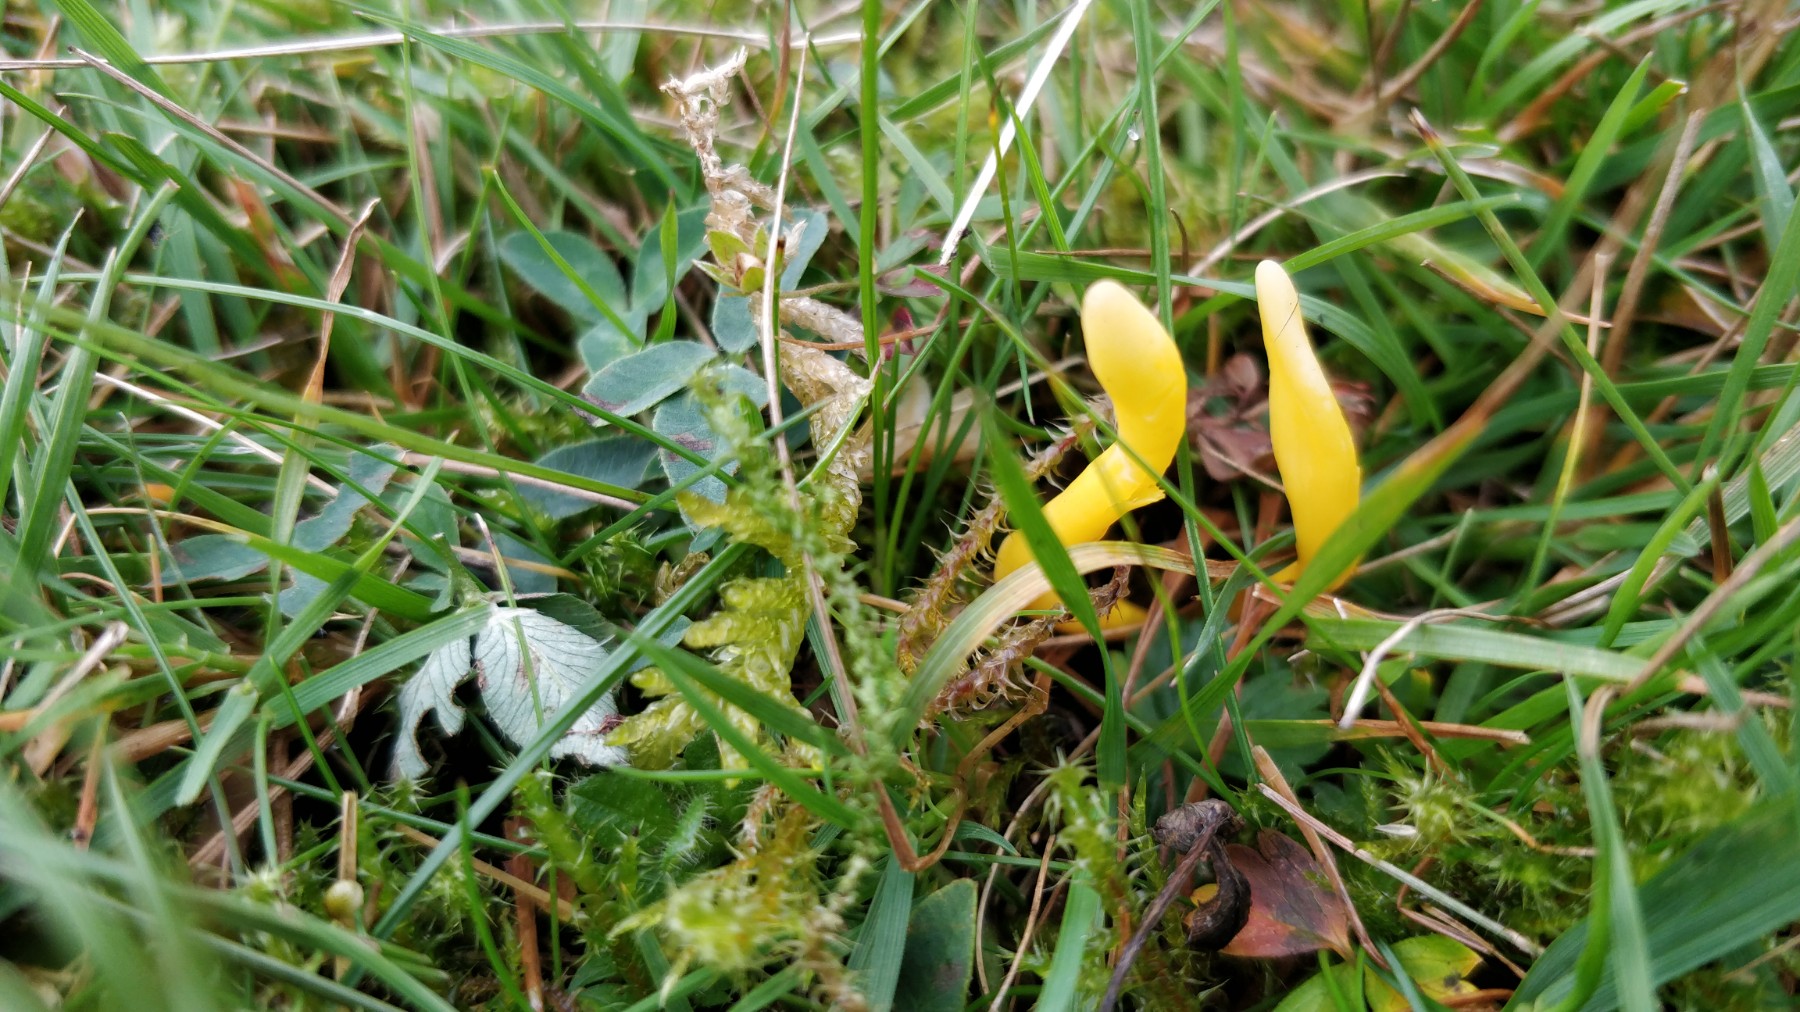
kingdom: Fungi
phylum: Basidiomycota
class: Agaricomycetes
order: Agaricales
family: Clavariaceae
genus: Clavulinopsis
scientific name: Clavulinopsis
